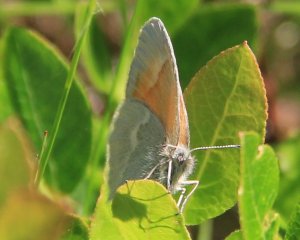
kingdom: Animalia
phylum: Arthropoda
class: Insecta
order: Lepidoptera
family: Nymphalidae
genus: Coenonympha
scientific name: Coenonympha tullia
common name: Large Heath
